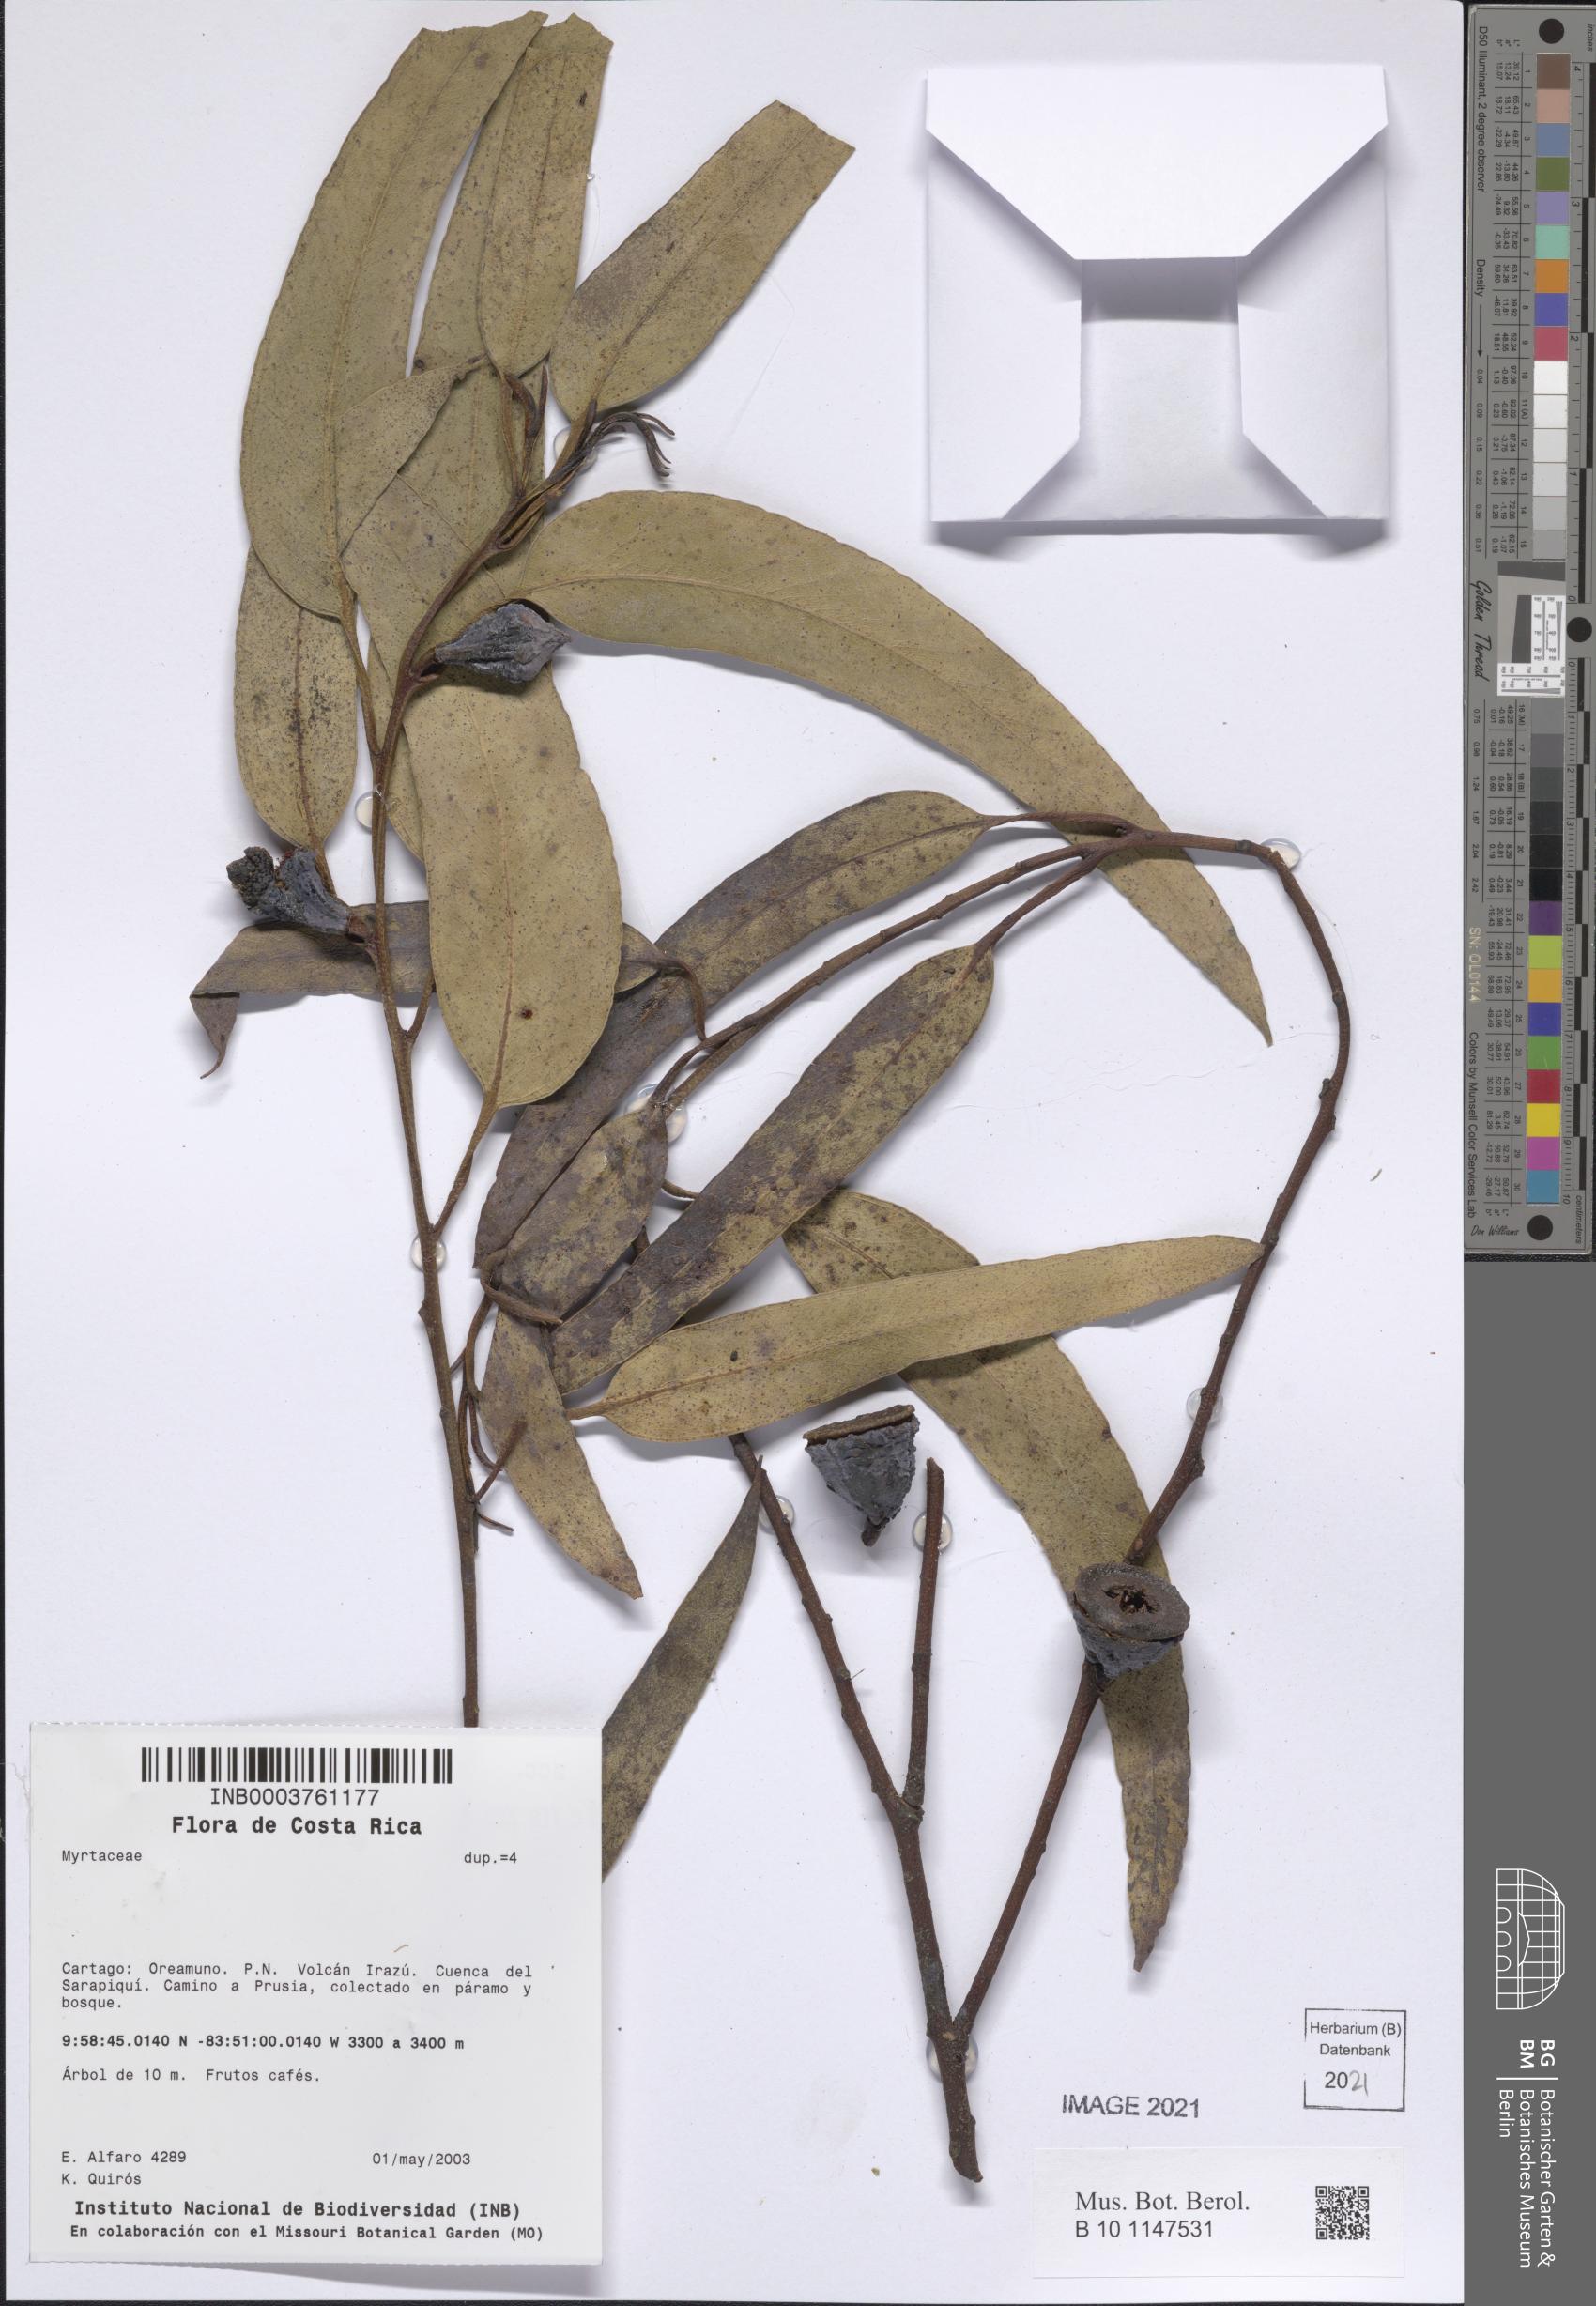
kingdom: Plantae
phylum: Tracheophyta
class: Magnoliopsida
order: Myrtales
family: Myrtaceae
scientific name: Myrtaceae
